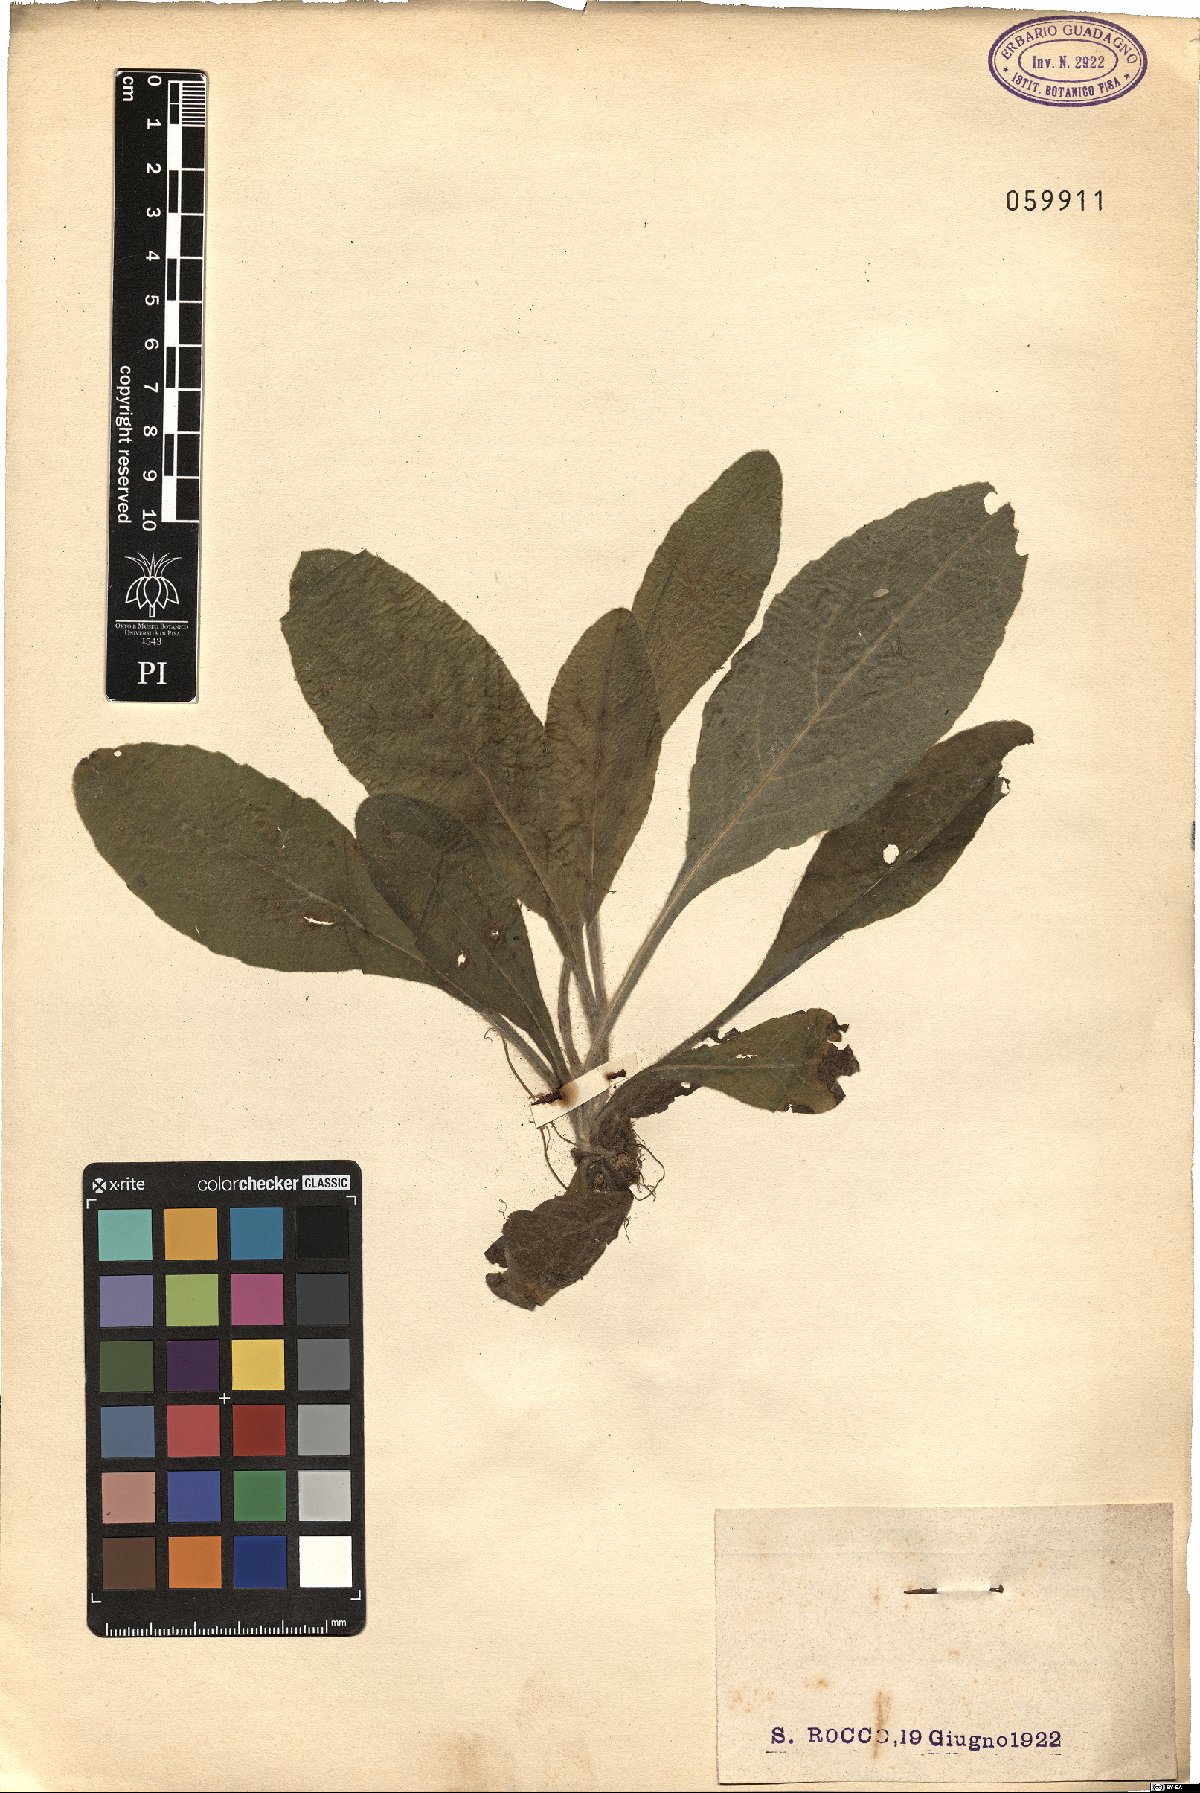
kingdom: Plantae
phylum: Tracheophyta
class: Magnoliopsida
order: Ericales
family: Primulaceae
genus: Primula
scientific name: Primula
